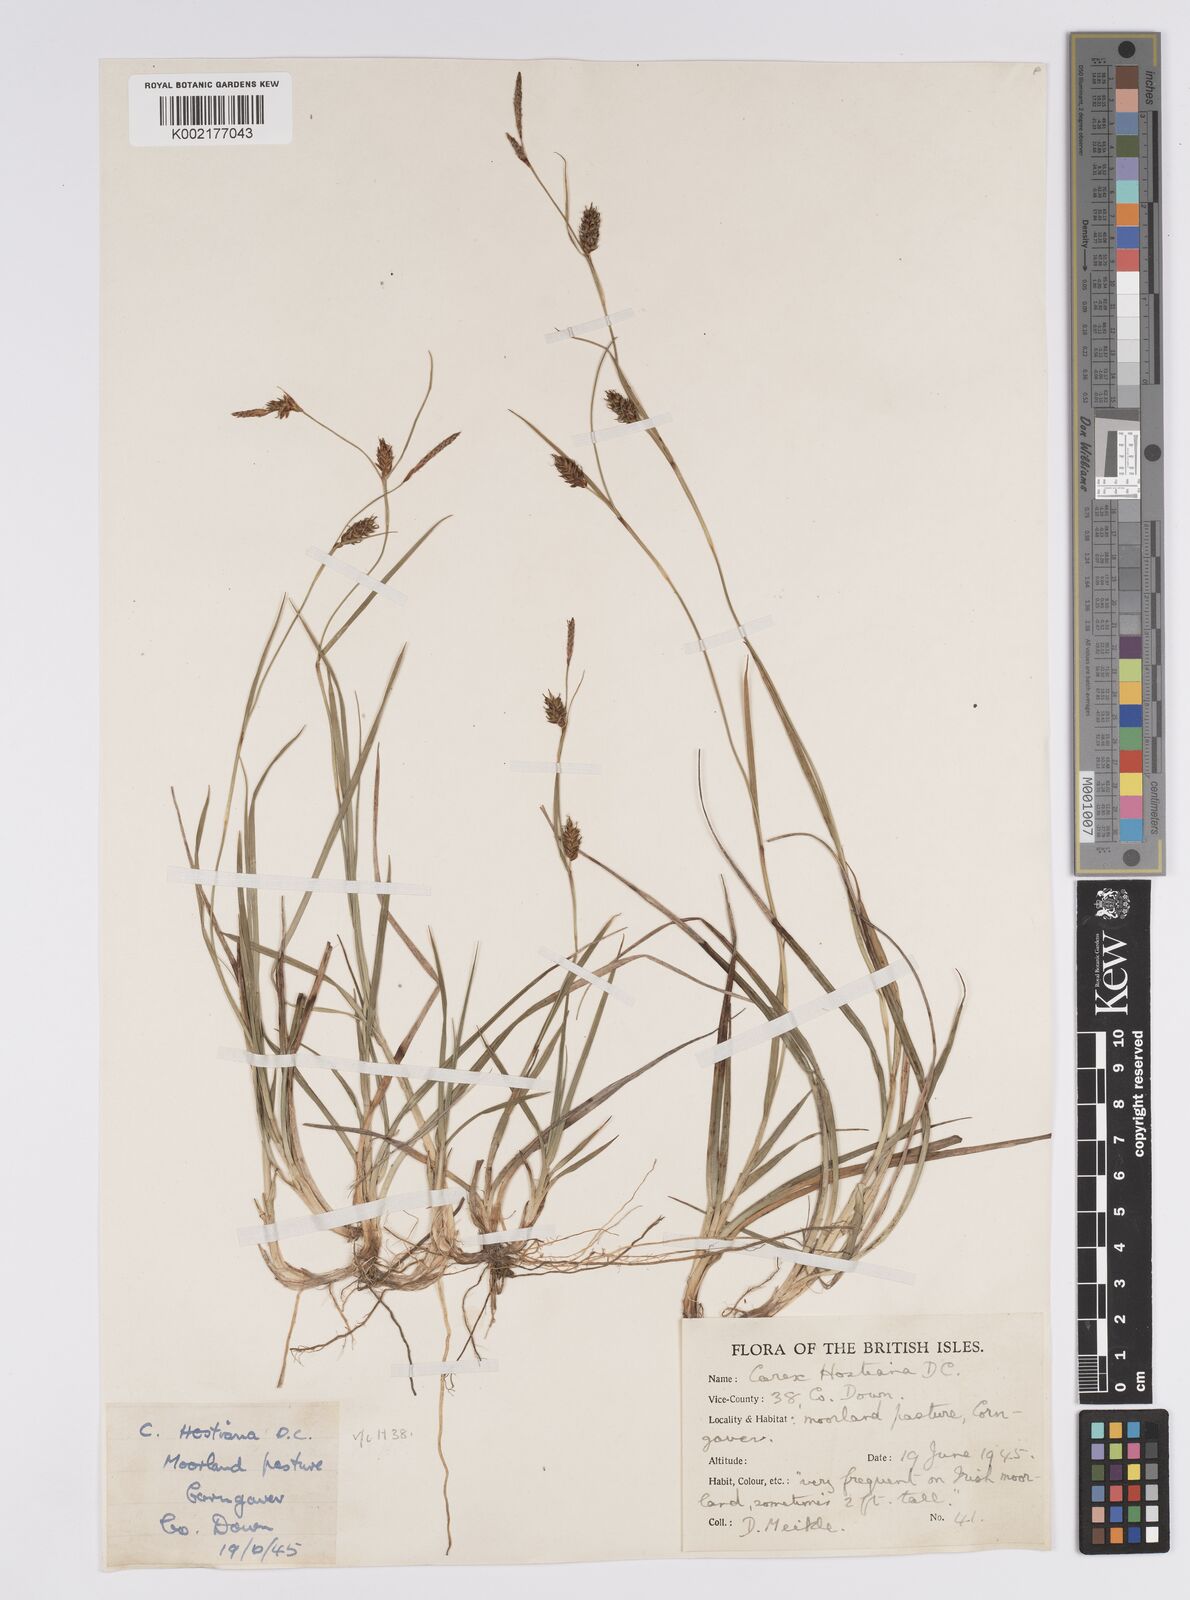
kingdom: Plantae
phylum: Tracheophyta
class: Liliopsida
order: Poales
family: Cyperaceae
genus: Carex
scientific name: Carex hostiana
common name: Tawny sedge
